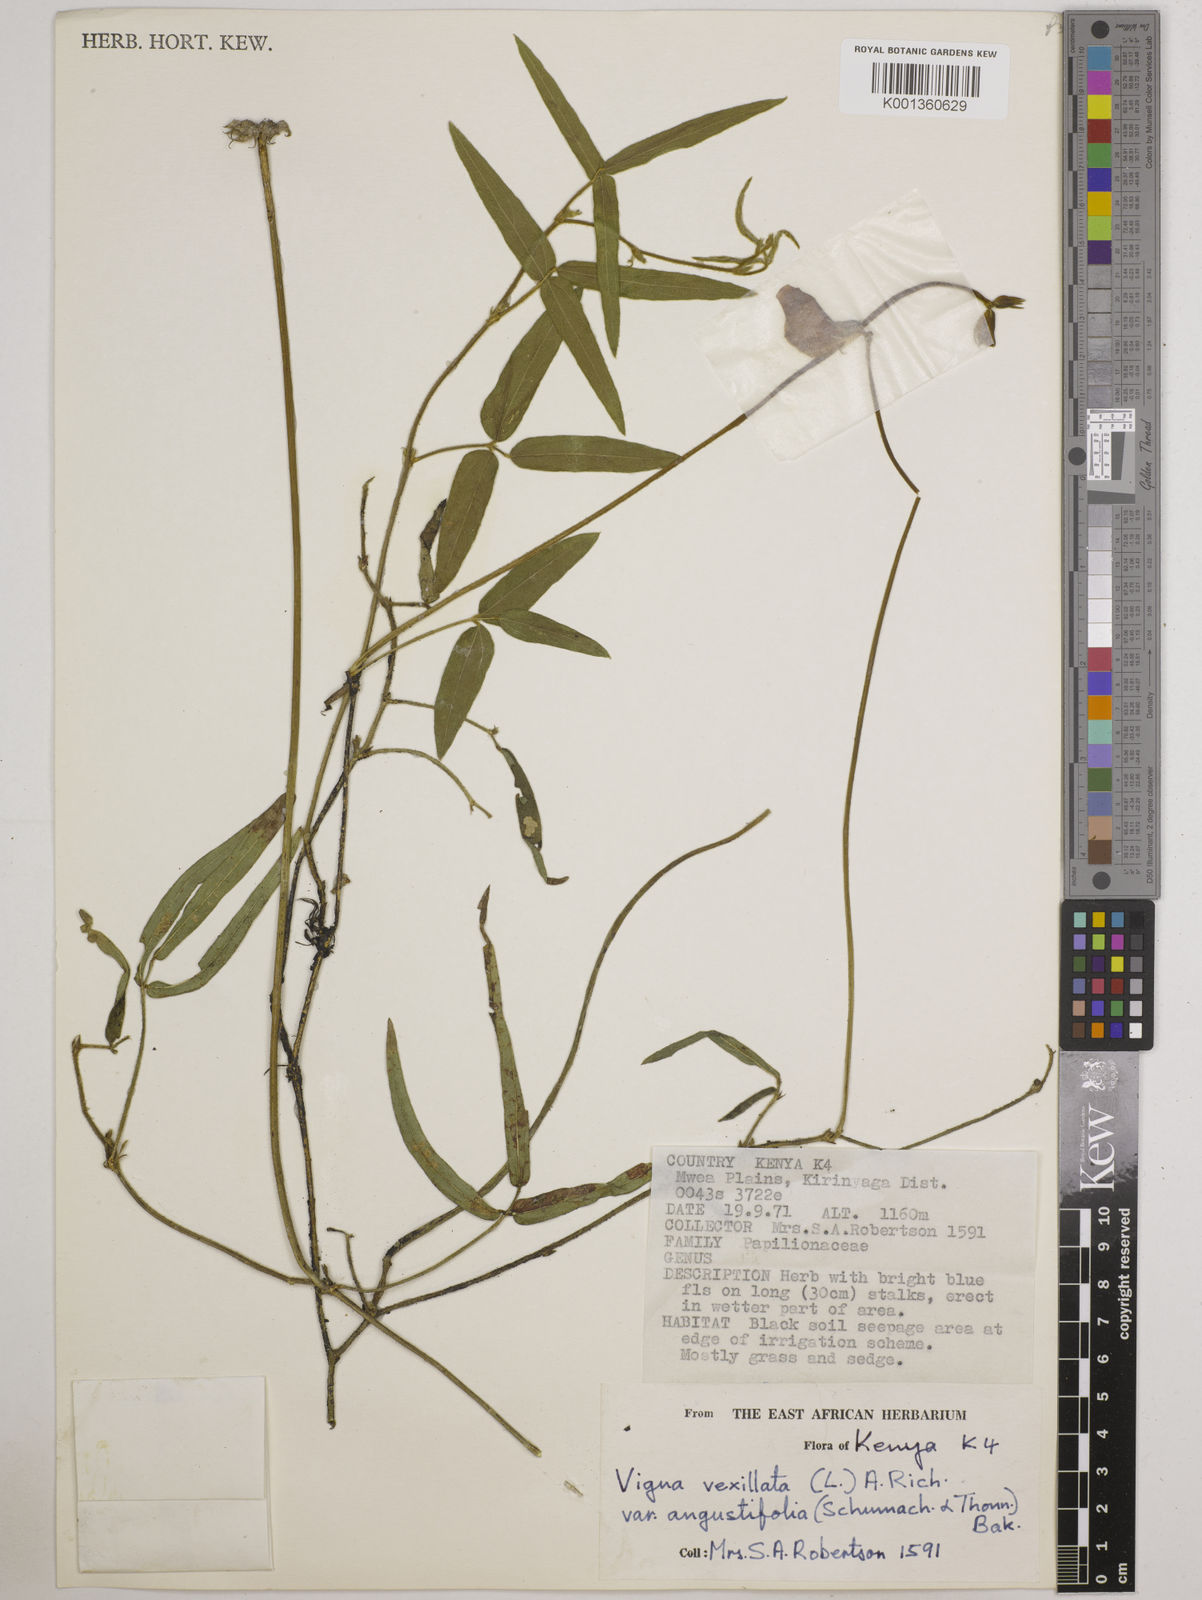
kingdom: Plantae
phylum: Tracheophyta
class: Magnoliopsida
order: Fabales
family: Fabaceae
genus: Vigna
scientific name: Vigna vexillata
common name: Zombi pea
